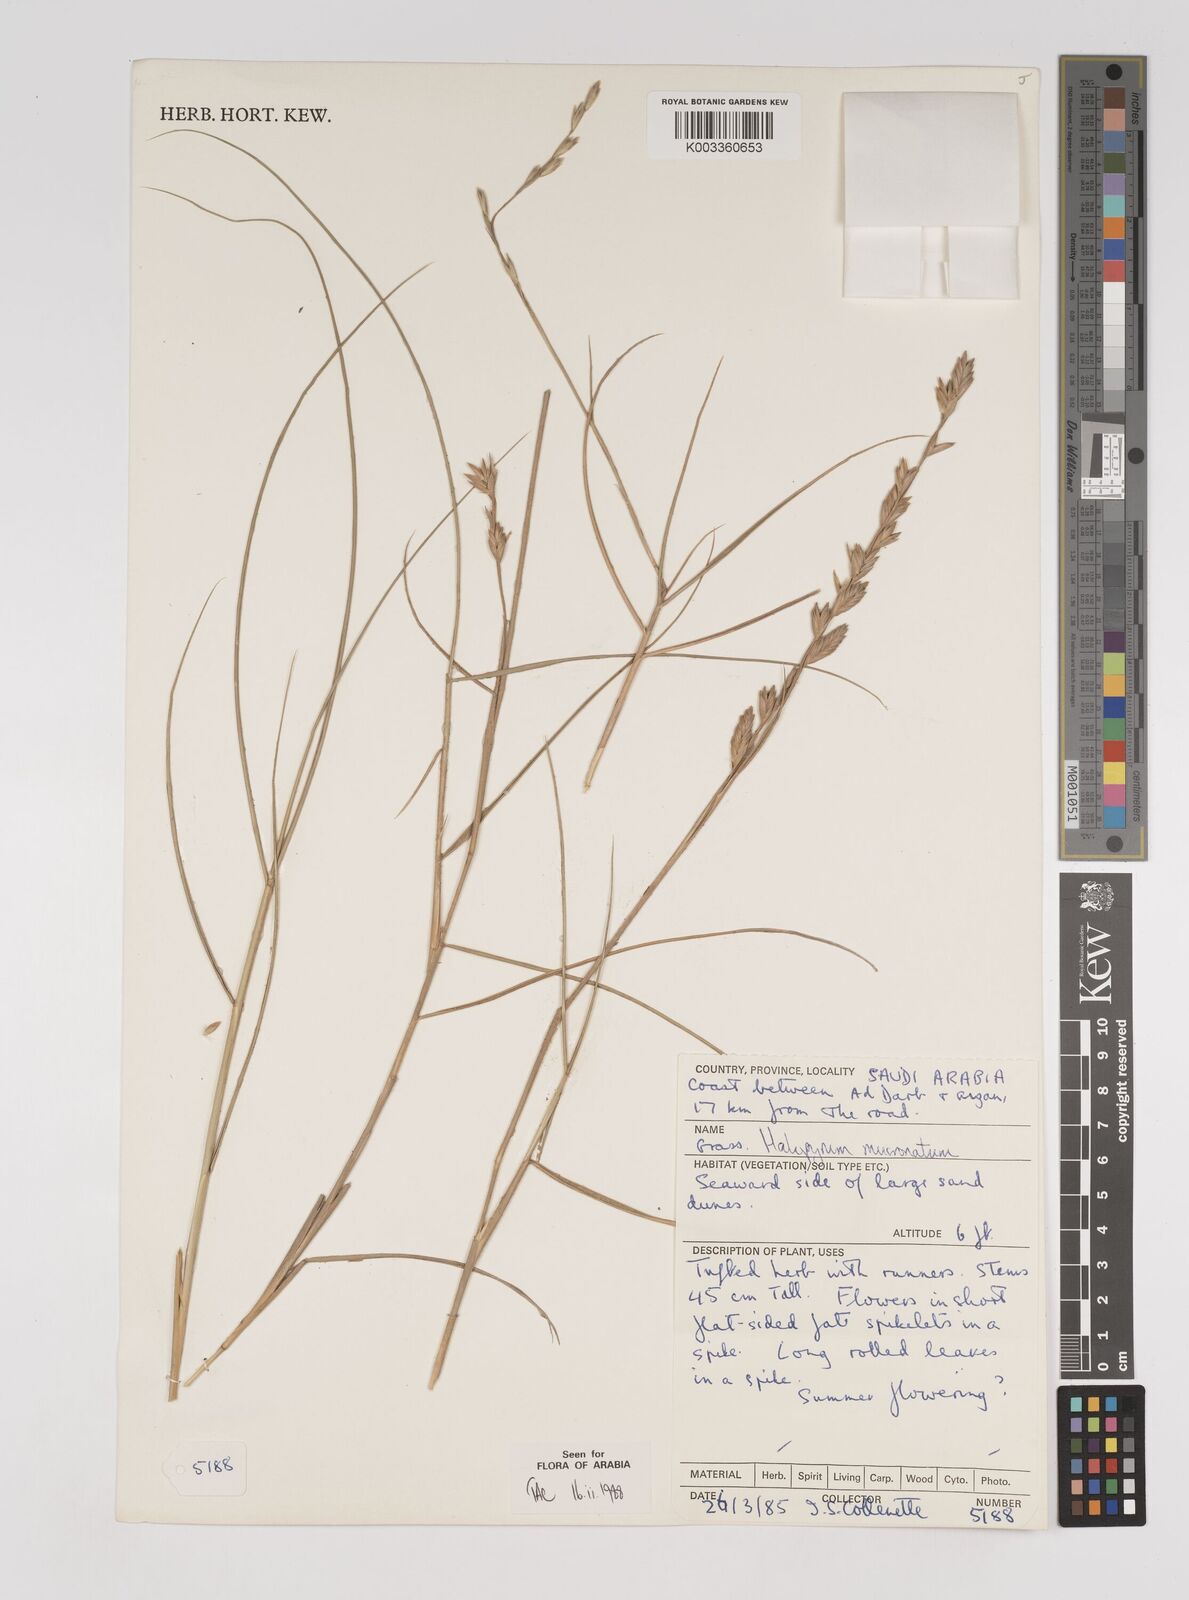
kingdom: Plantae
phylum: Tracheophyta
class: Liliopsida
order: Poales
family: Poaceae
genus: Halopyrum
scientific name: Halopyrum mucronatum
